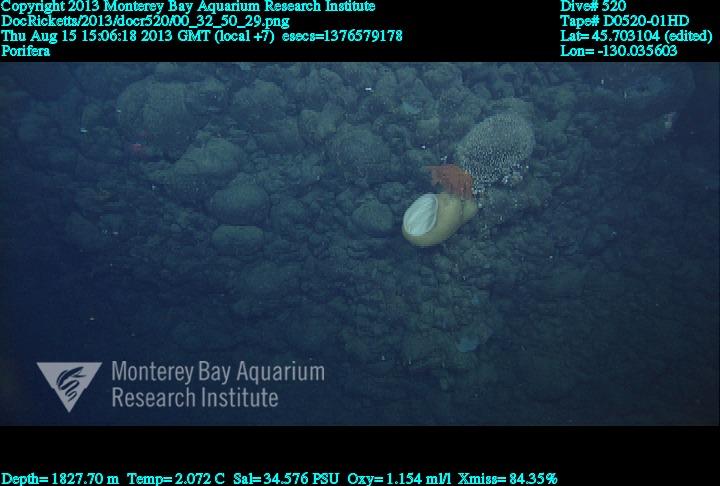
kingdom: Animalia
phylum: Porifera
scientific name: Porifera
